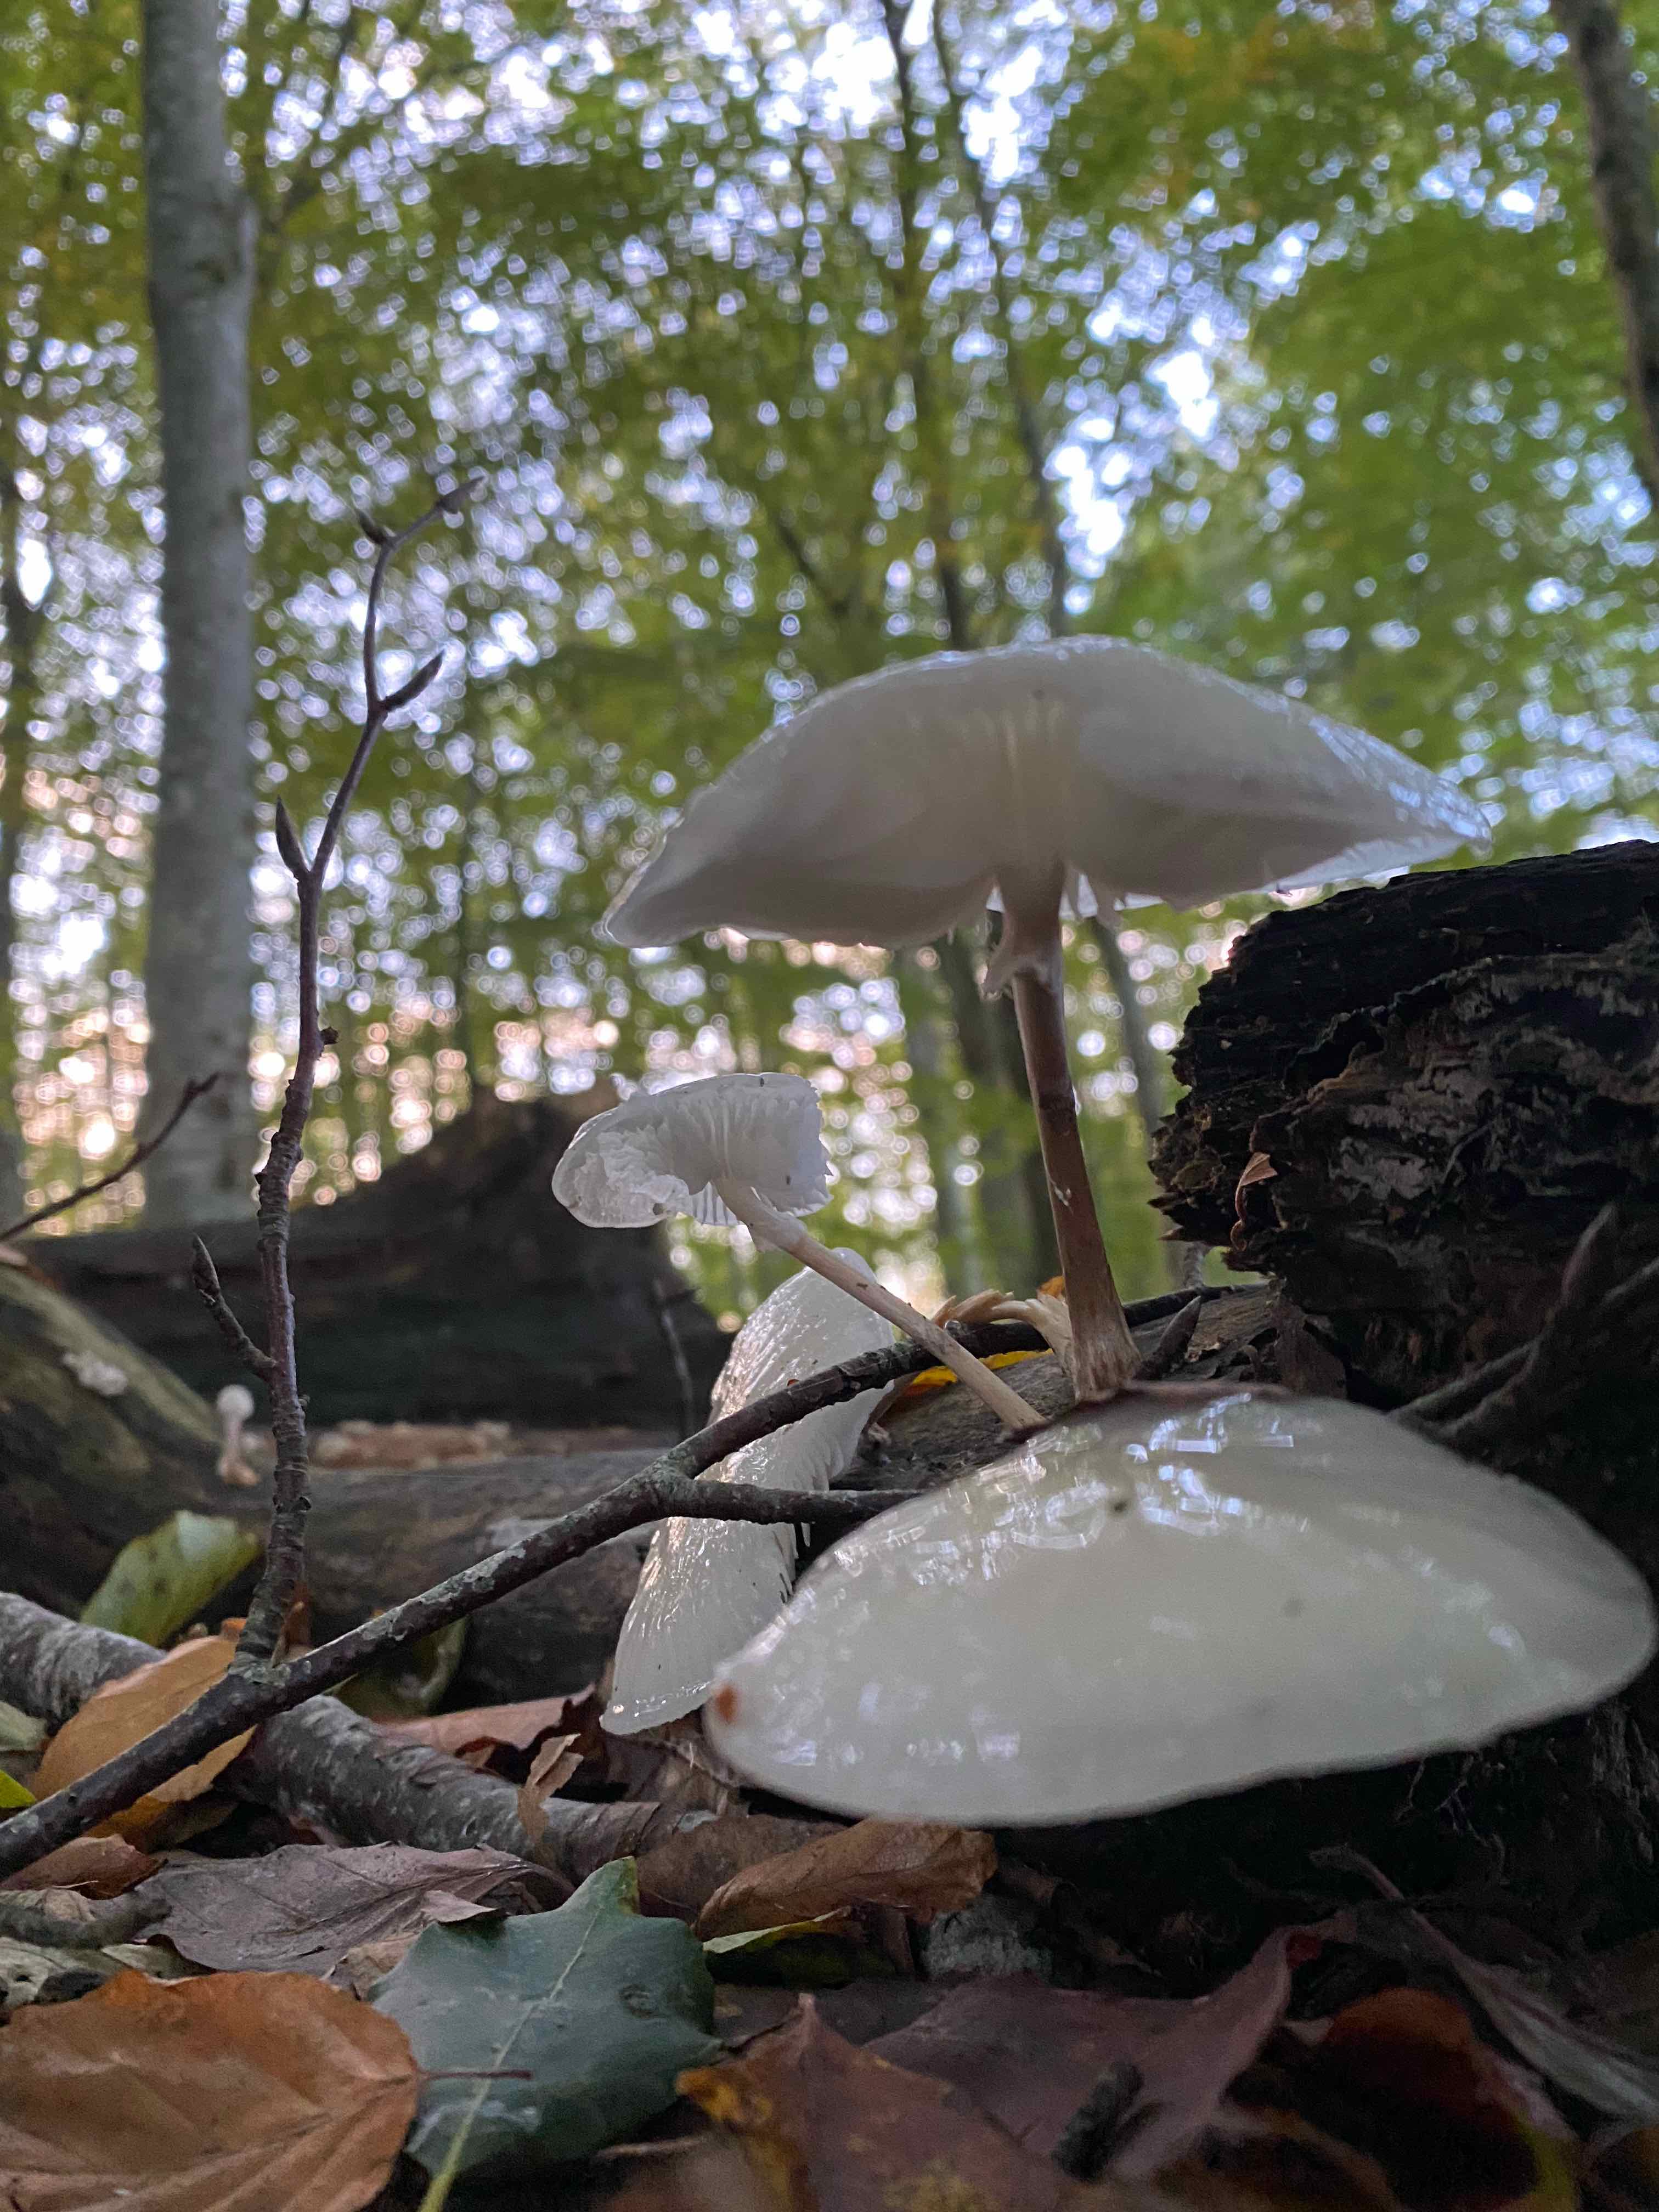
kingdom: Fungi
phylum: Basidiomycota
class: Agaricomycetes
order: Agaricales
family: Physalacriaceae
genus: Mucidula
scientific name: Mucidula mucida
